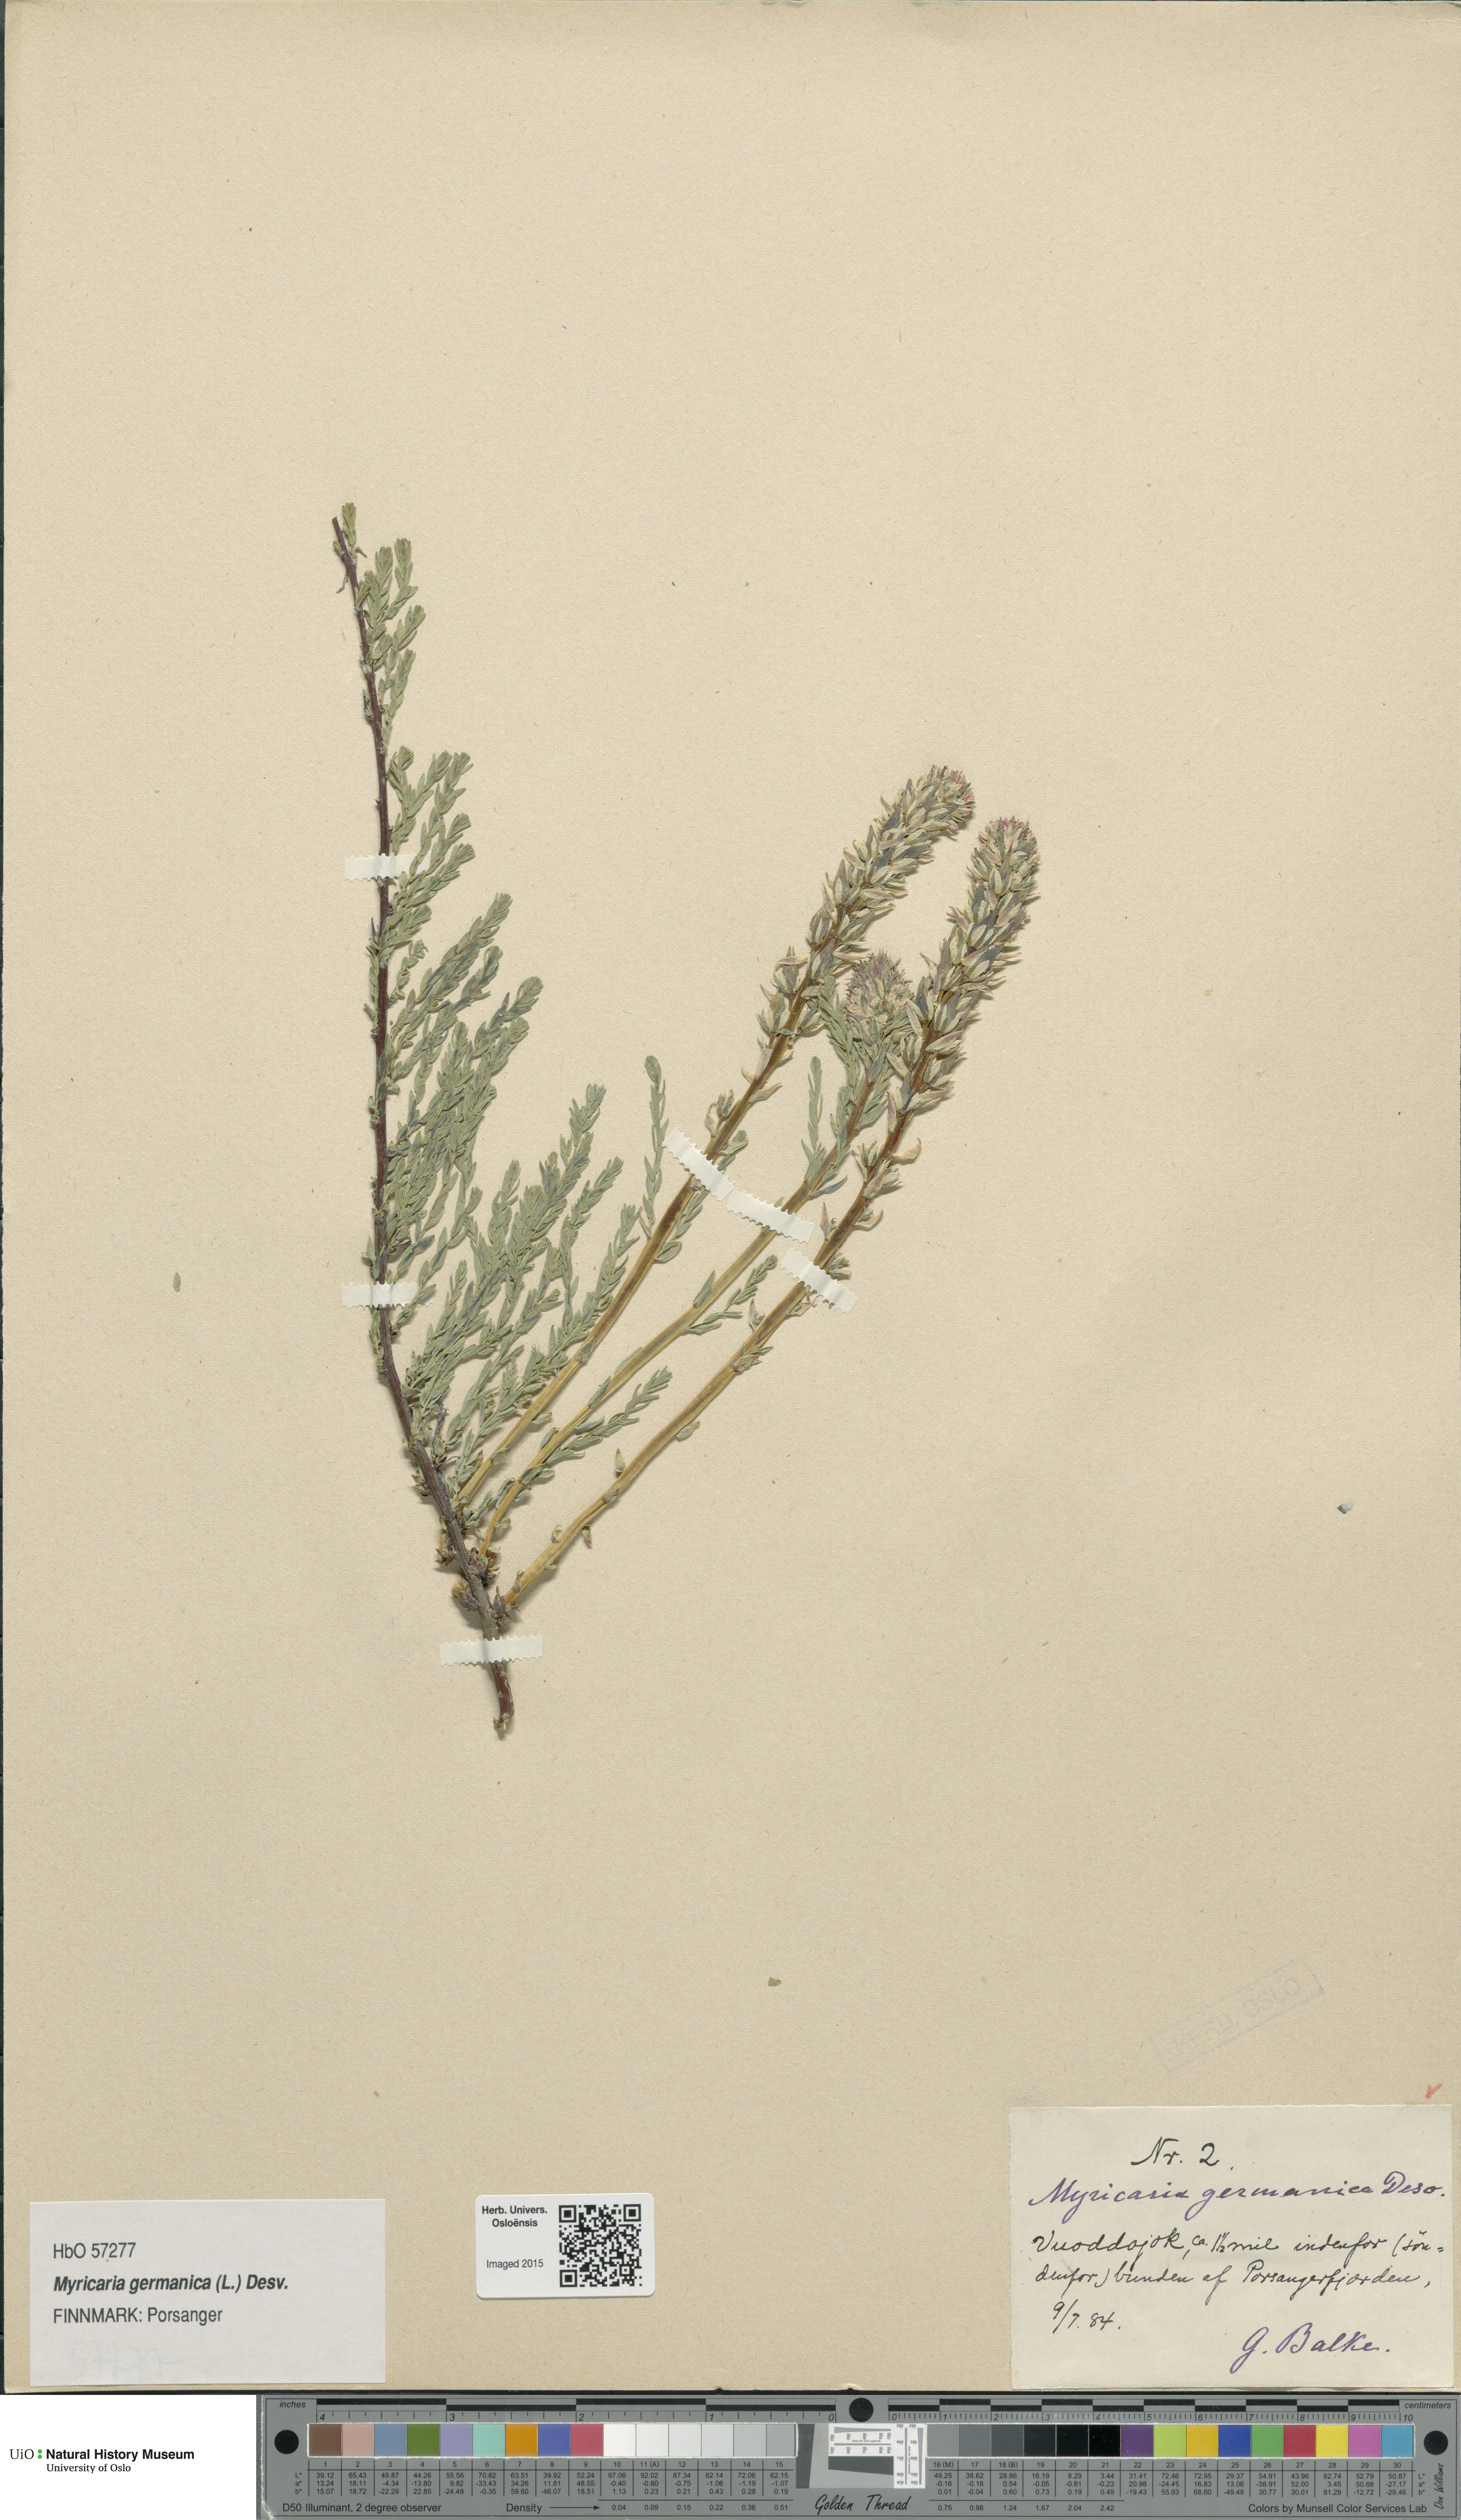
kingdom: Plantae
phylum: Tracheophyta
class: Magnoliopsida
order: Caryophyllales
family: Tamaricaceae
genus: Myricaria
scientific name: Myricaria germanica
